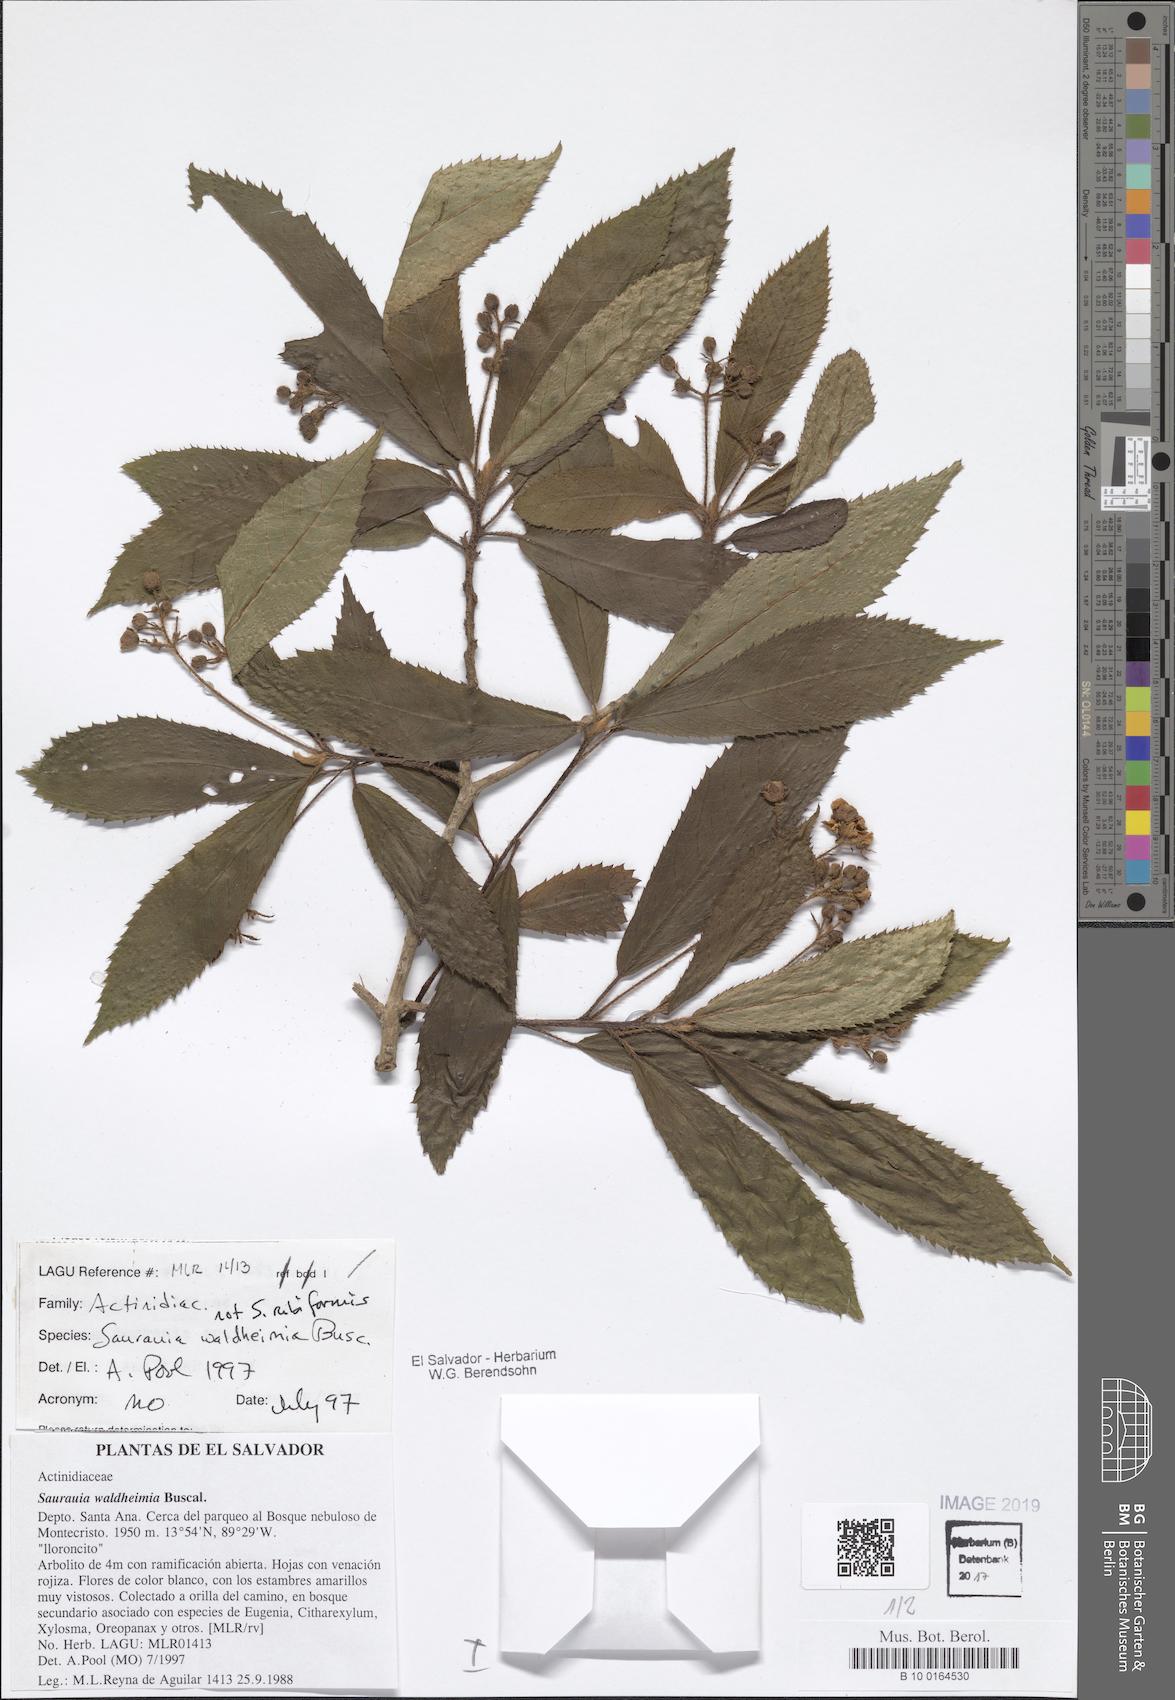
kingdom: Plantae
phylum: Tracheophyta
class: Magnoliopsida
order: Ericales
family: Actinidiaceae
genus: Saurauia
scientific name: Saurauia waldheimii
